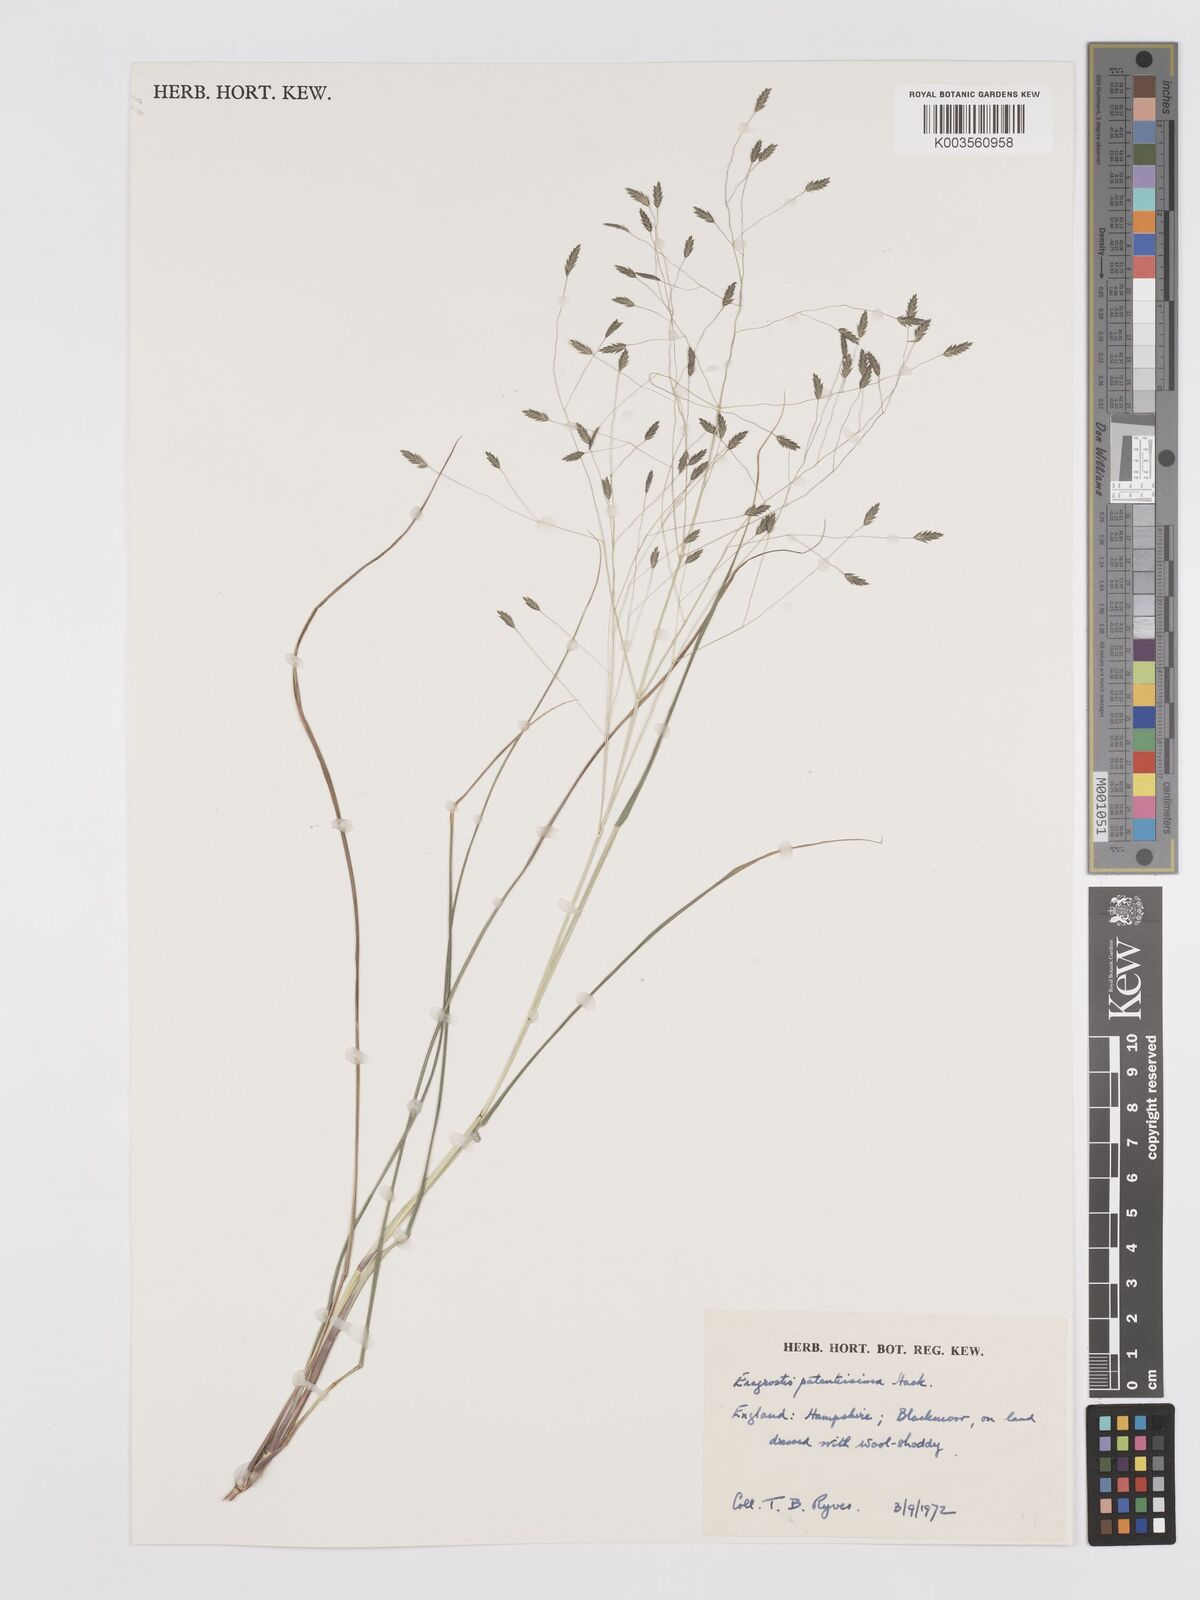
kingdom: Plantae
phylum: Tracheophyta
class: Liliopsida
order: Poales
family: Poaceae
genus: Eragrostis
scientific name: Eragrostis patentissima
